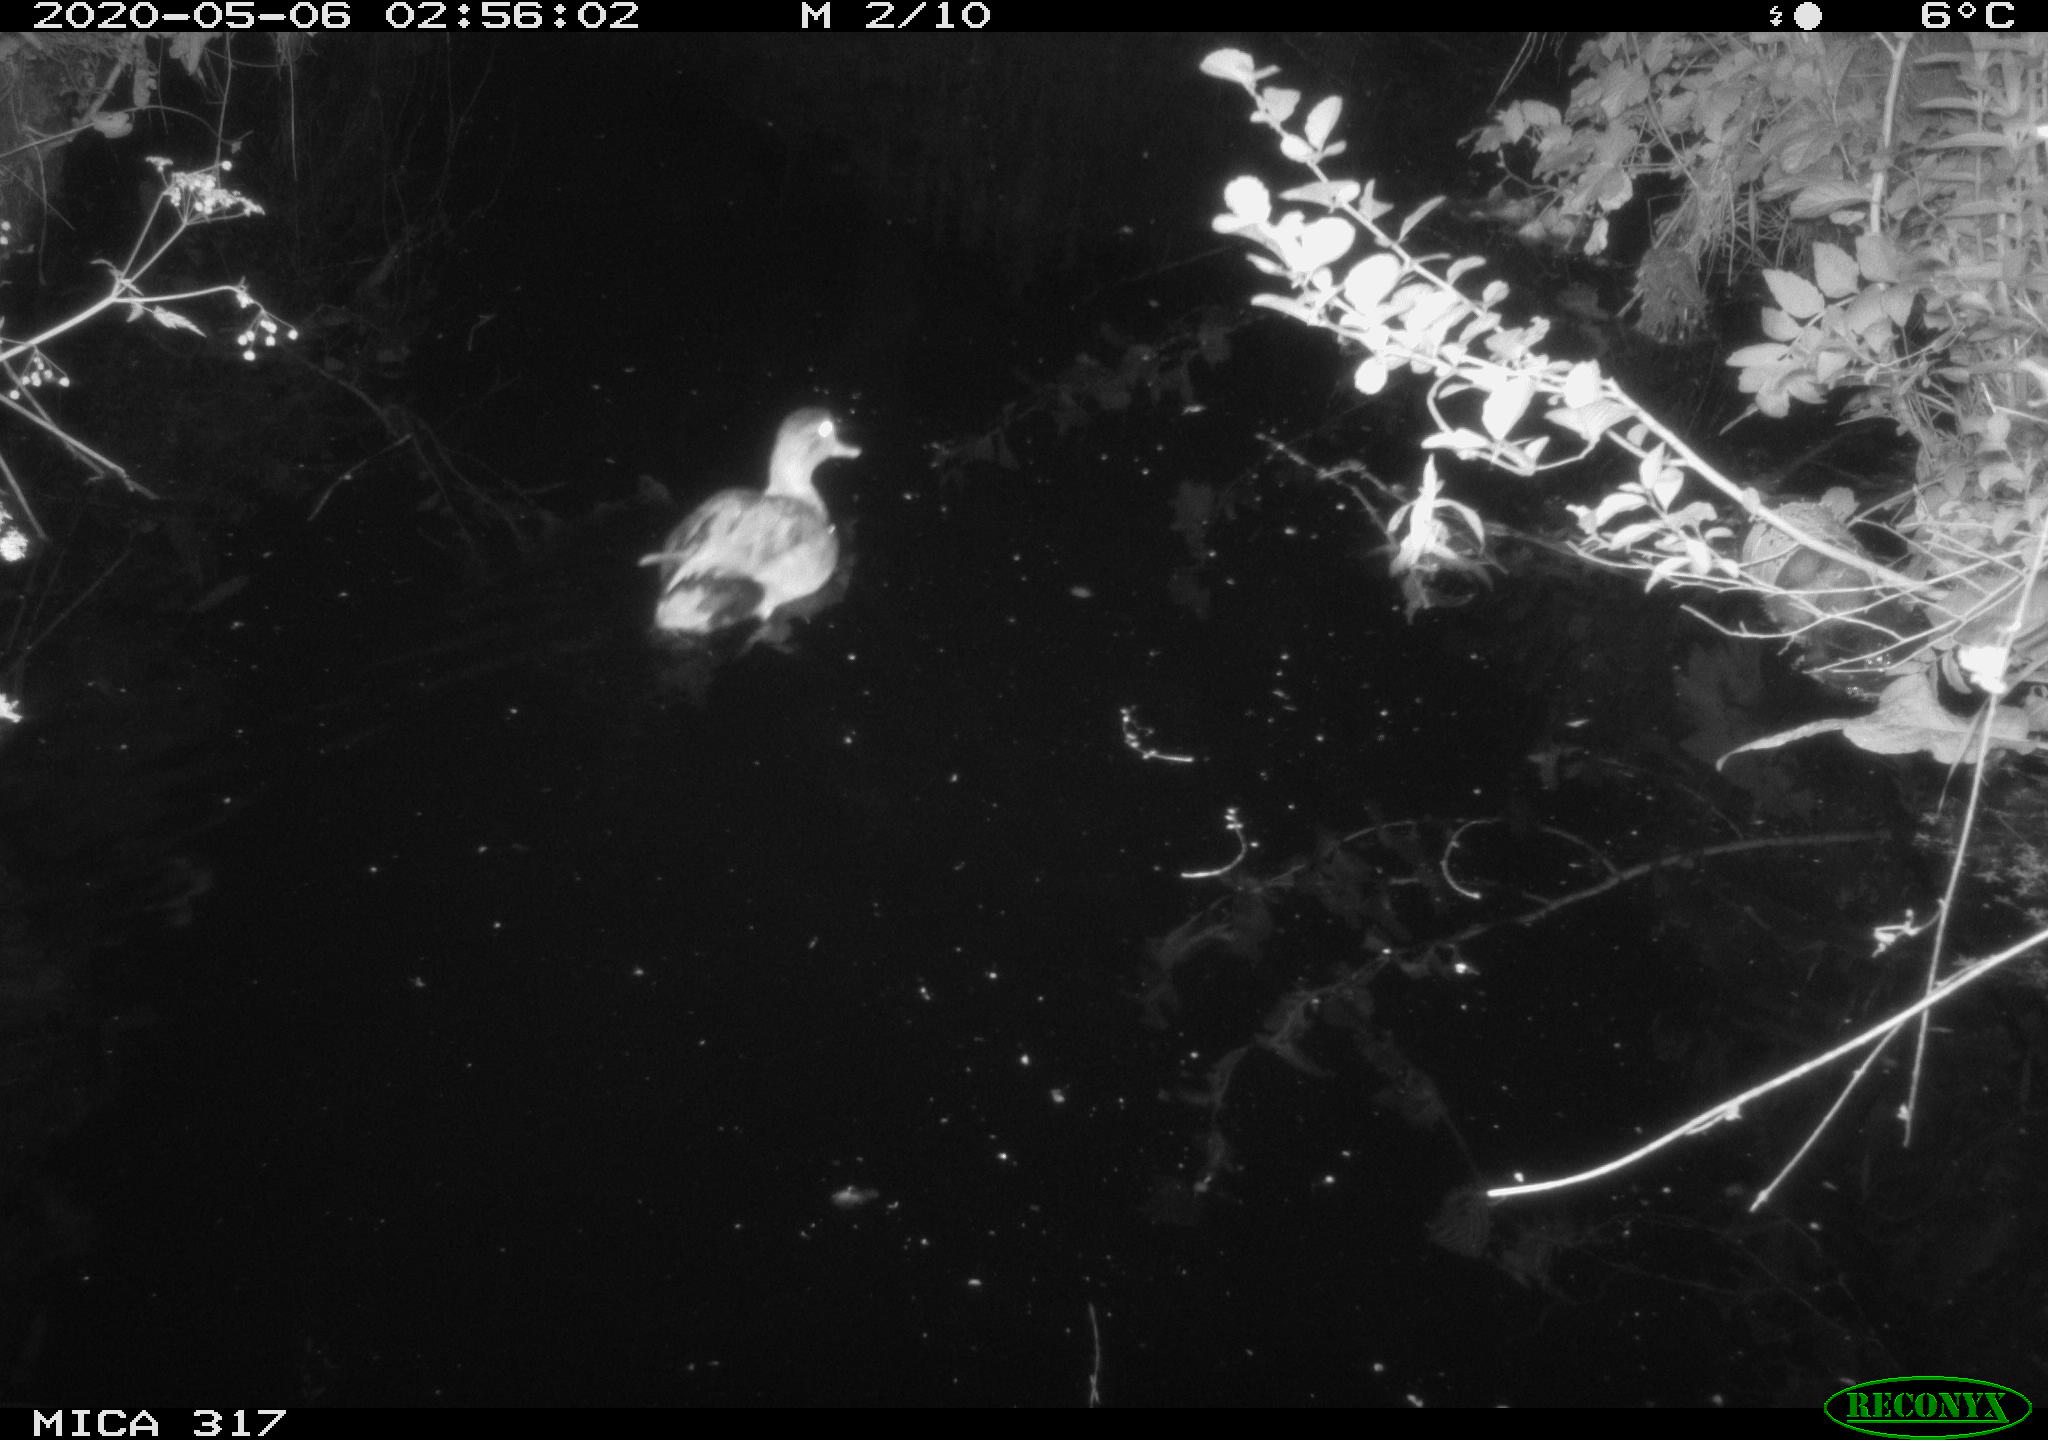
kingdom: Animalia
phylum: Chordata
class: Aves
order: Anseriformes
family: Anatidae
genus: Anas
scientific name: Anas platyrhynchos
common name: Mallard
